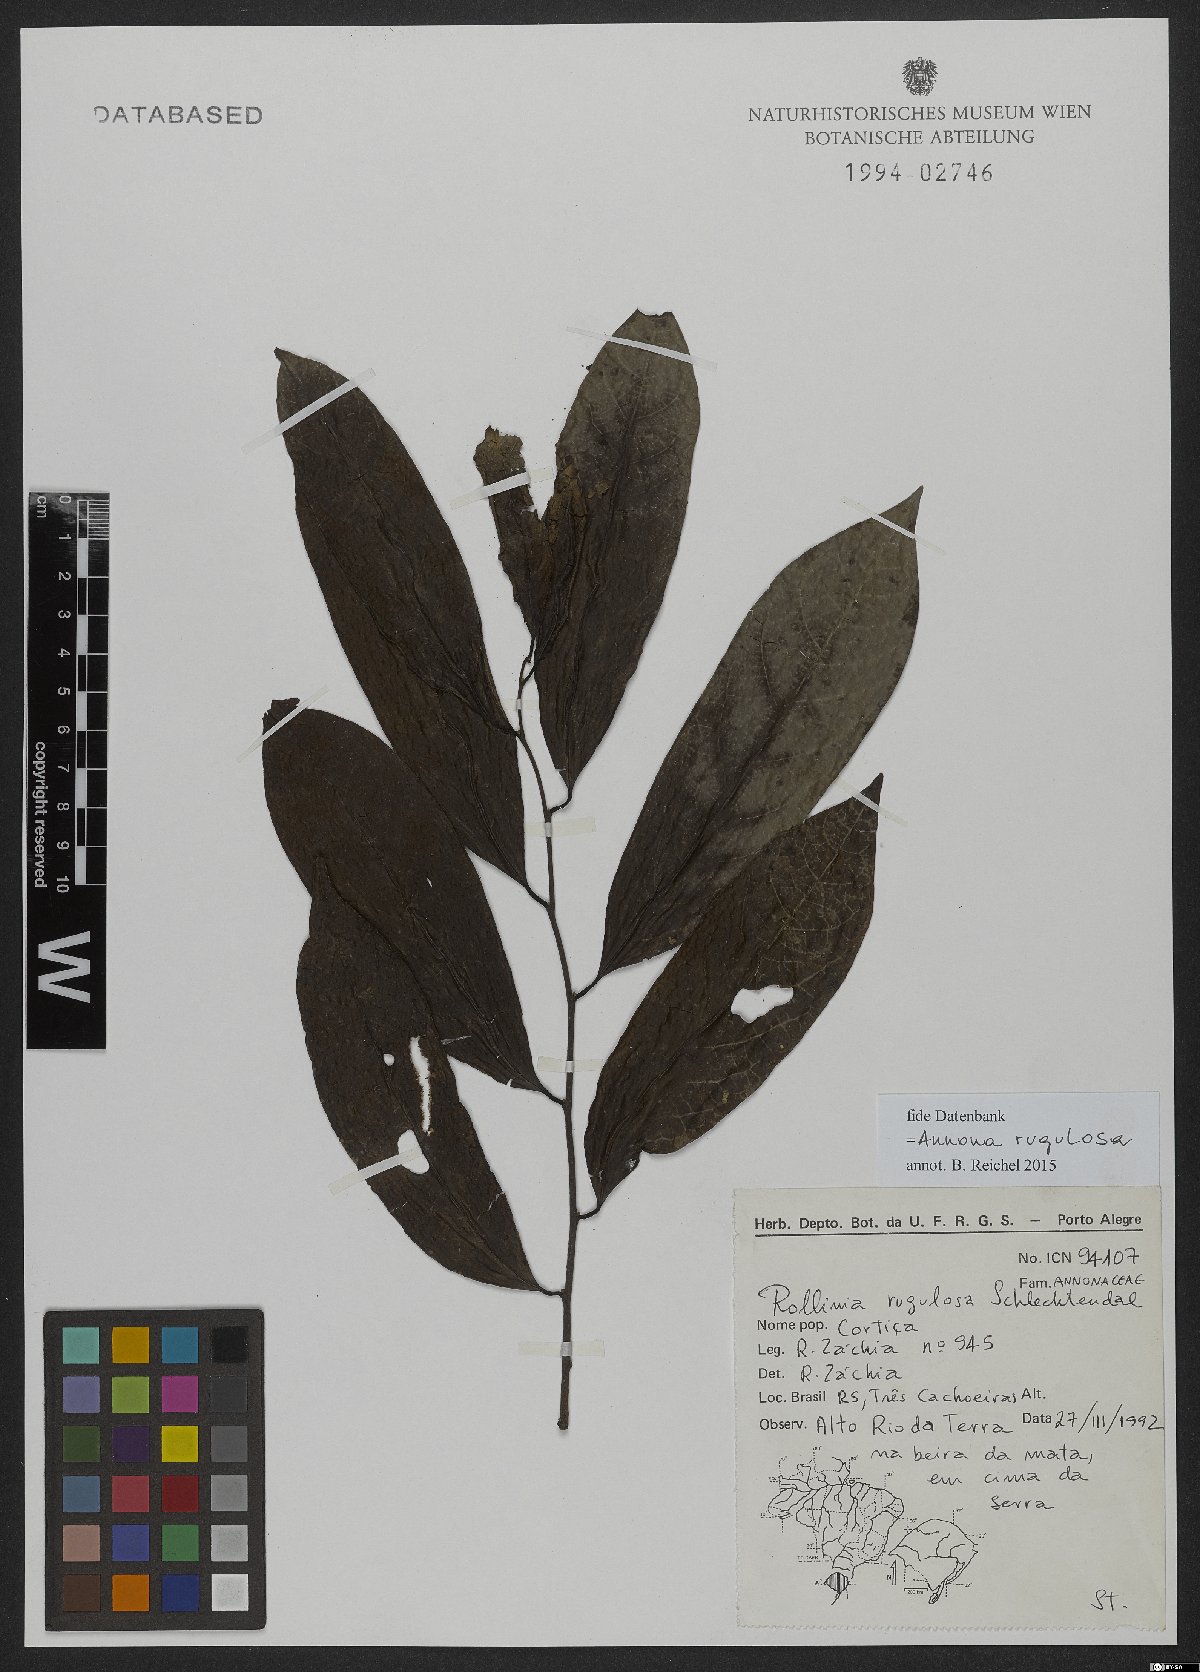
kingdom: Plantae
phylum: Tracheophyta
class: Magnoliopsida
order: Magnoliales
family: Annonaceae
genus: Annona
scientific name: Annona rugulosa
